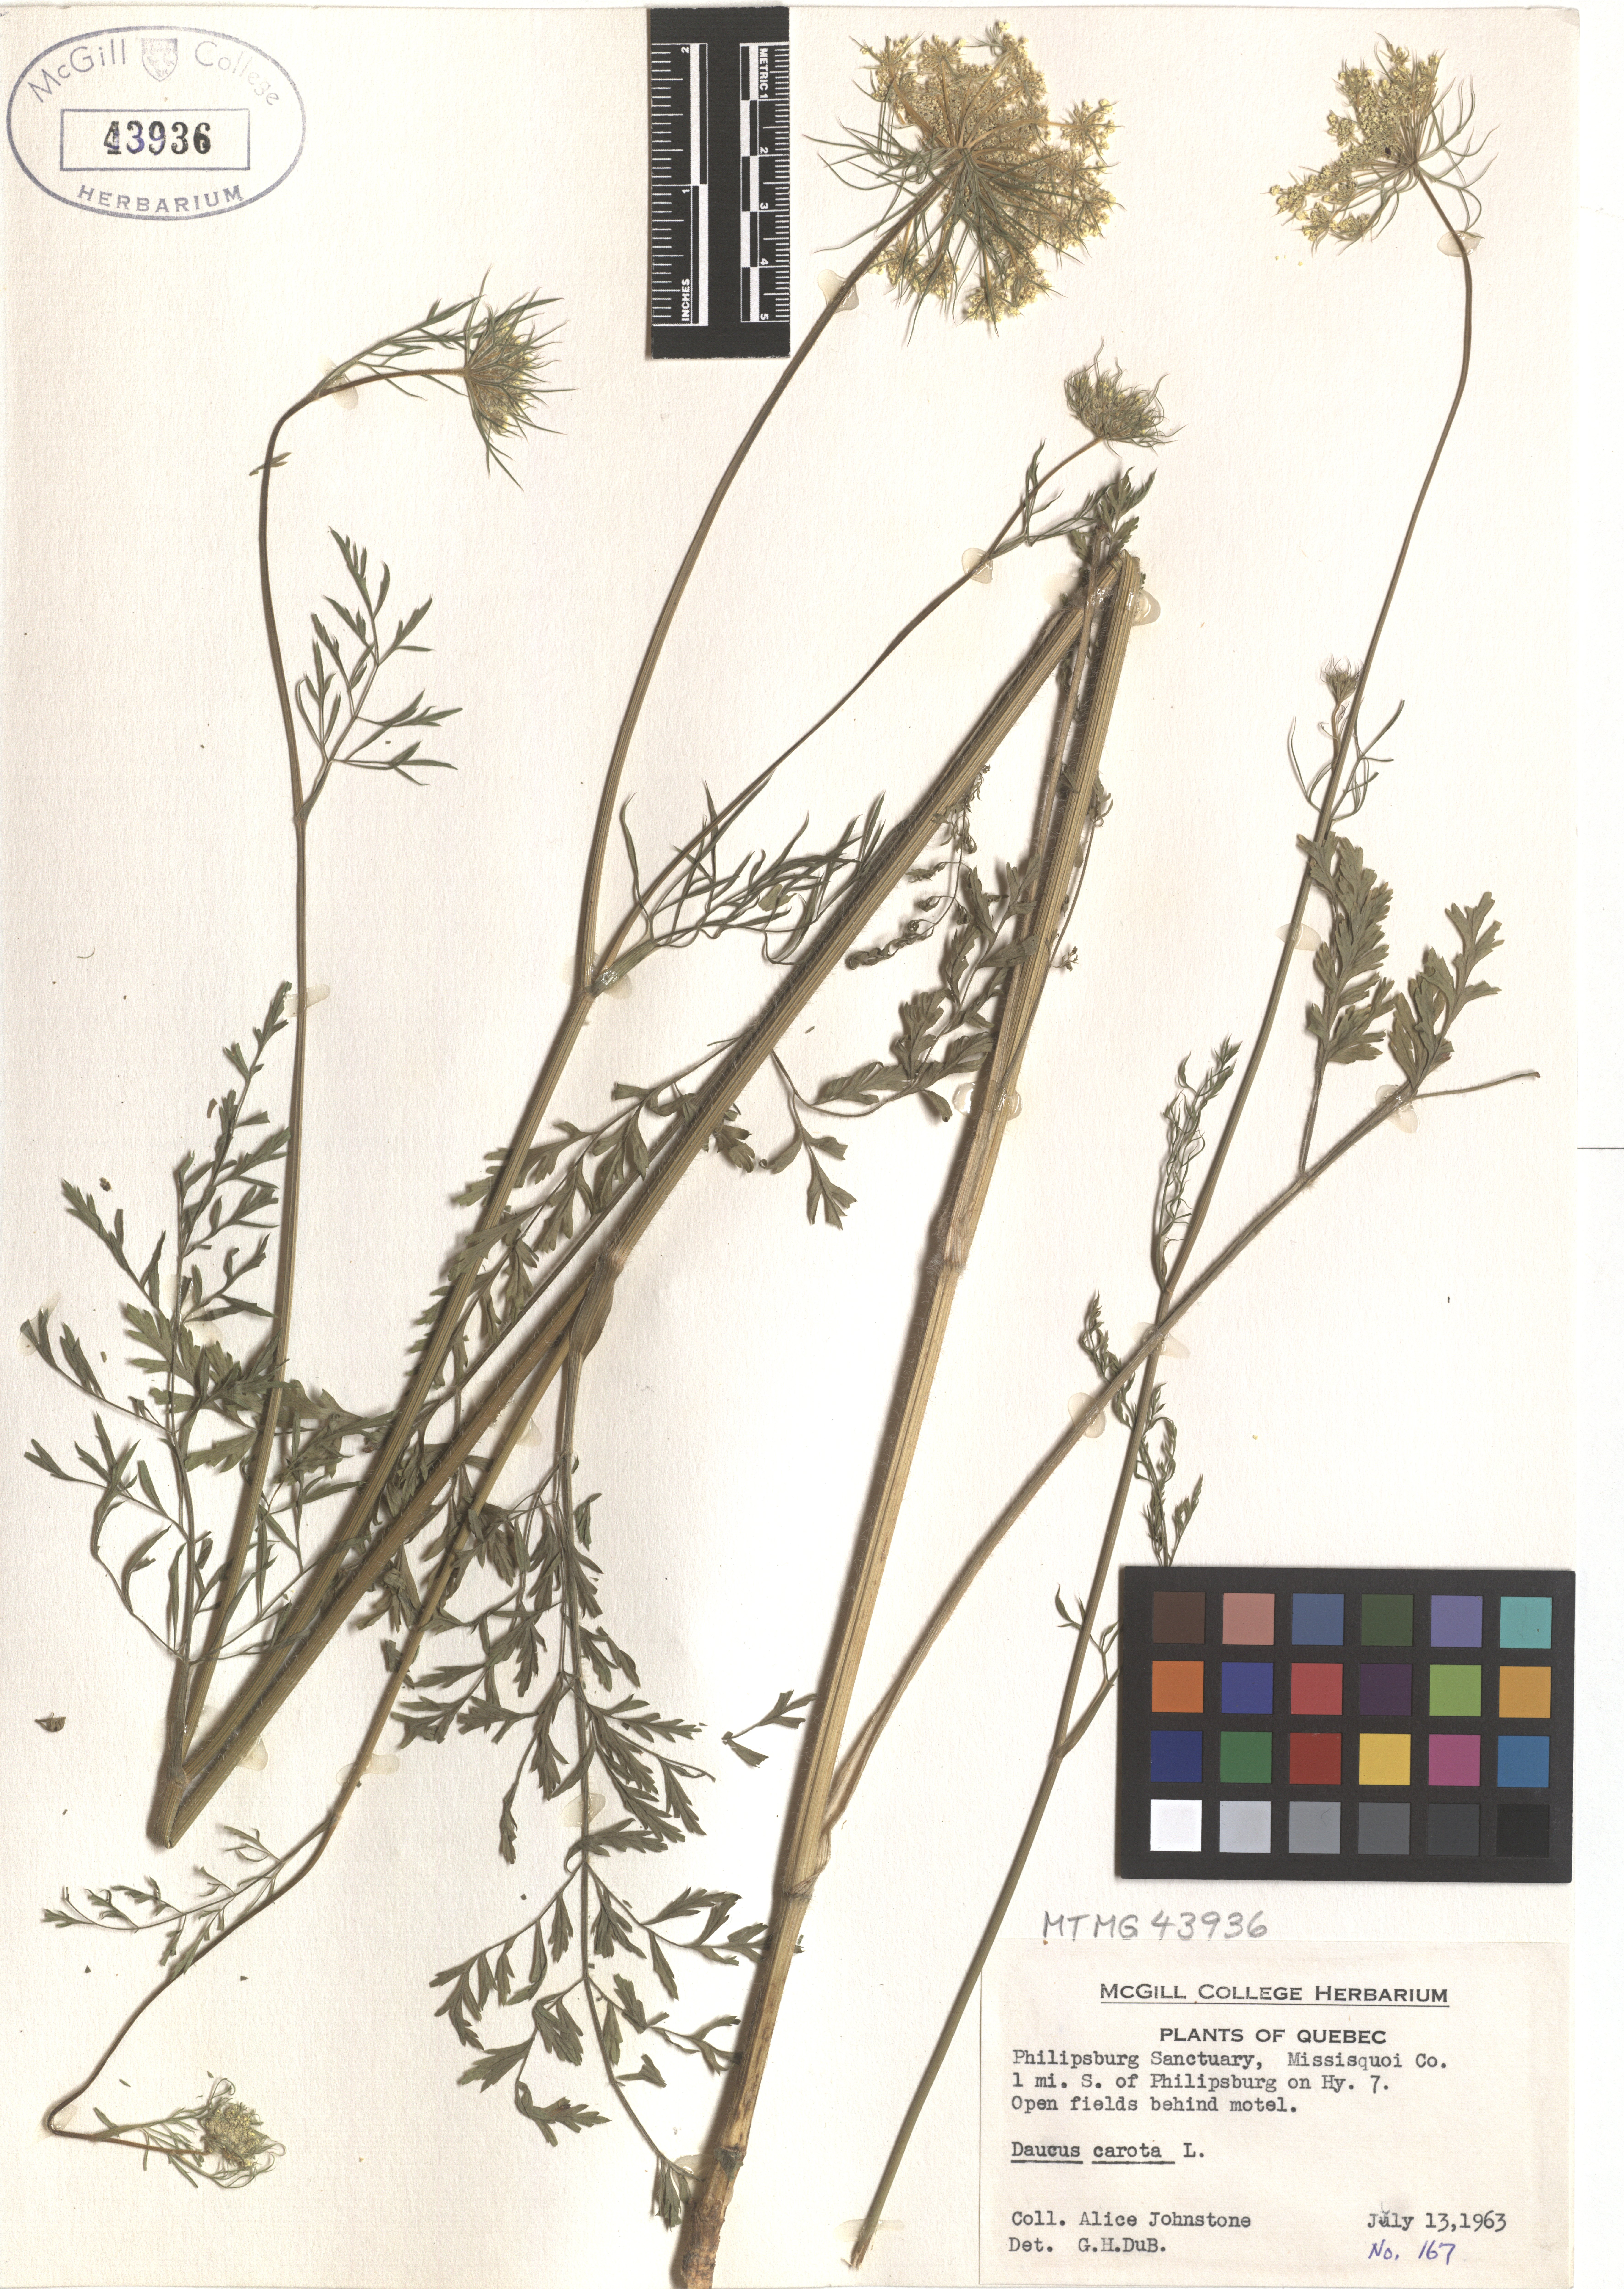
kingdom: Plantae
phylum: Tracheophyta
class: Magnoliopsida
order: Apiales
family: Apiaceae
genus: Daucus
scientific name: Daucus carota
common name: Wild carrot
